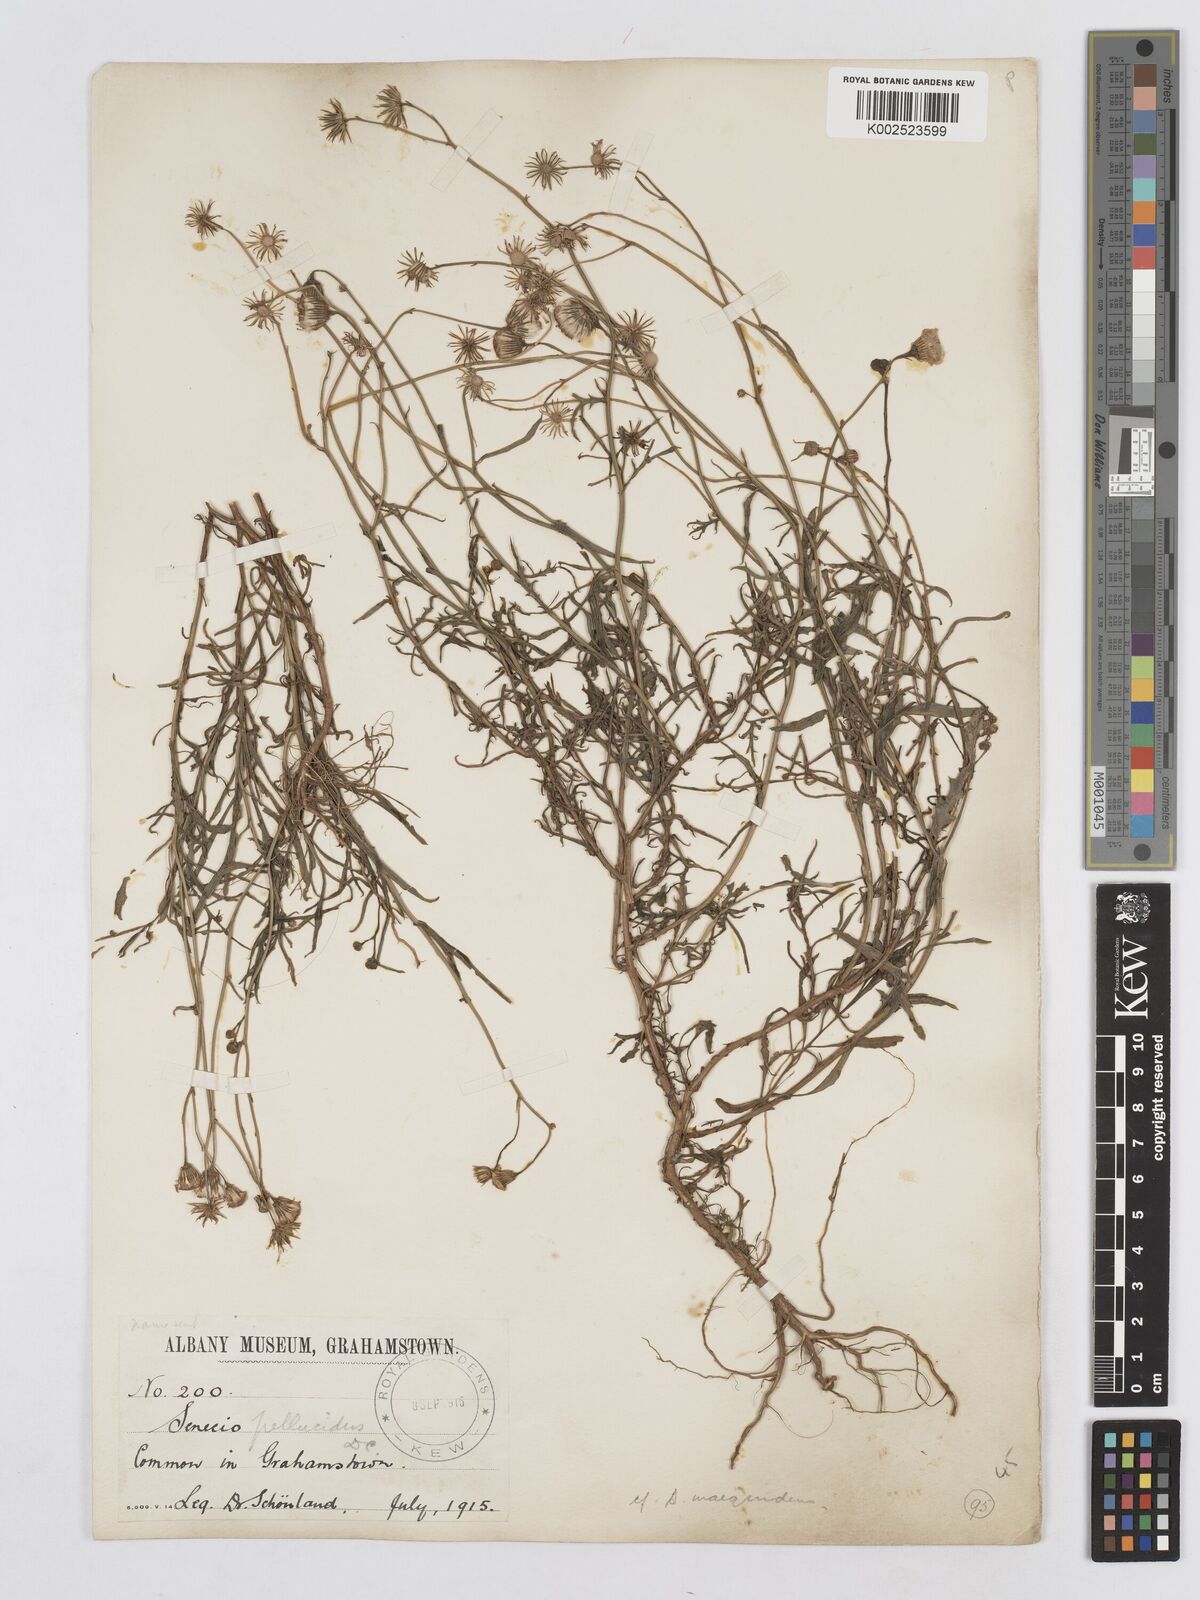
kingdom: Plantae
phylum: Tracheophyta
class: Magnoliopsida
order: Asterales
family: Asteraceae
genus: Senecio
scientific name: Senecio inaequidens
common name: Narrow-leaved ragwort
